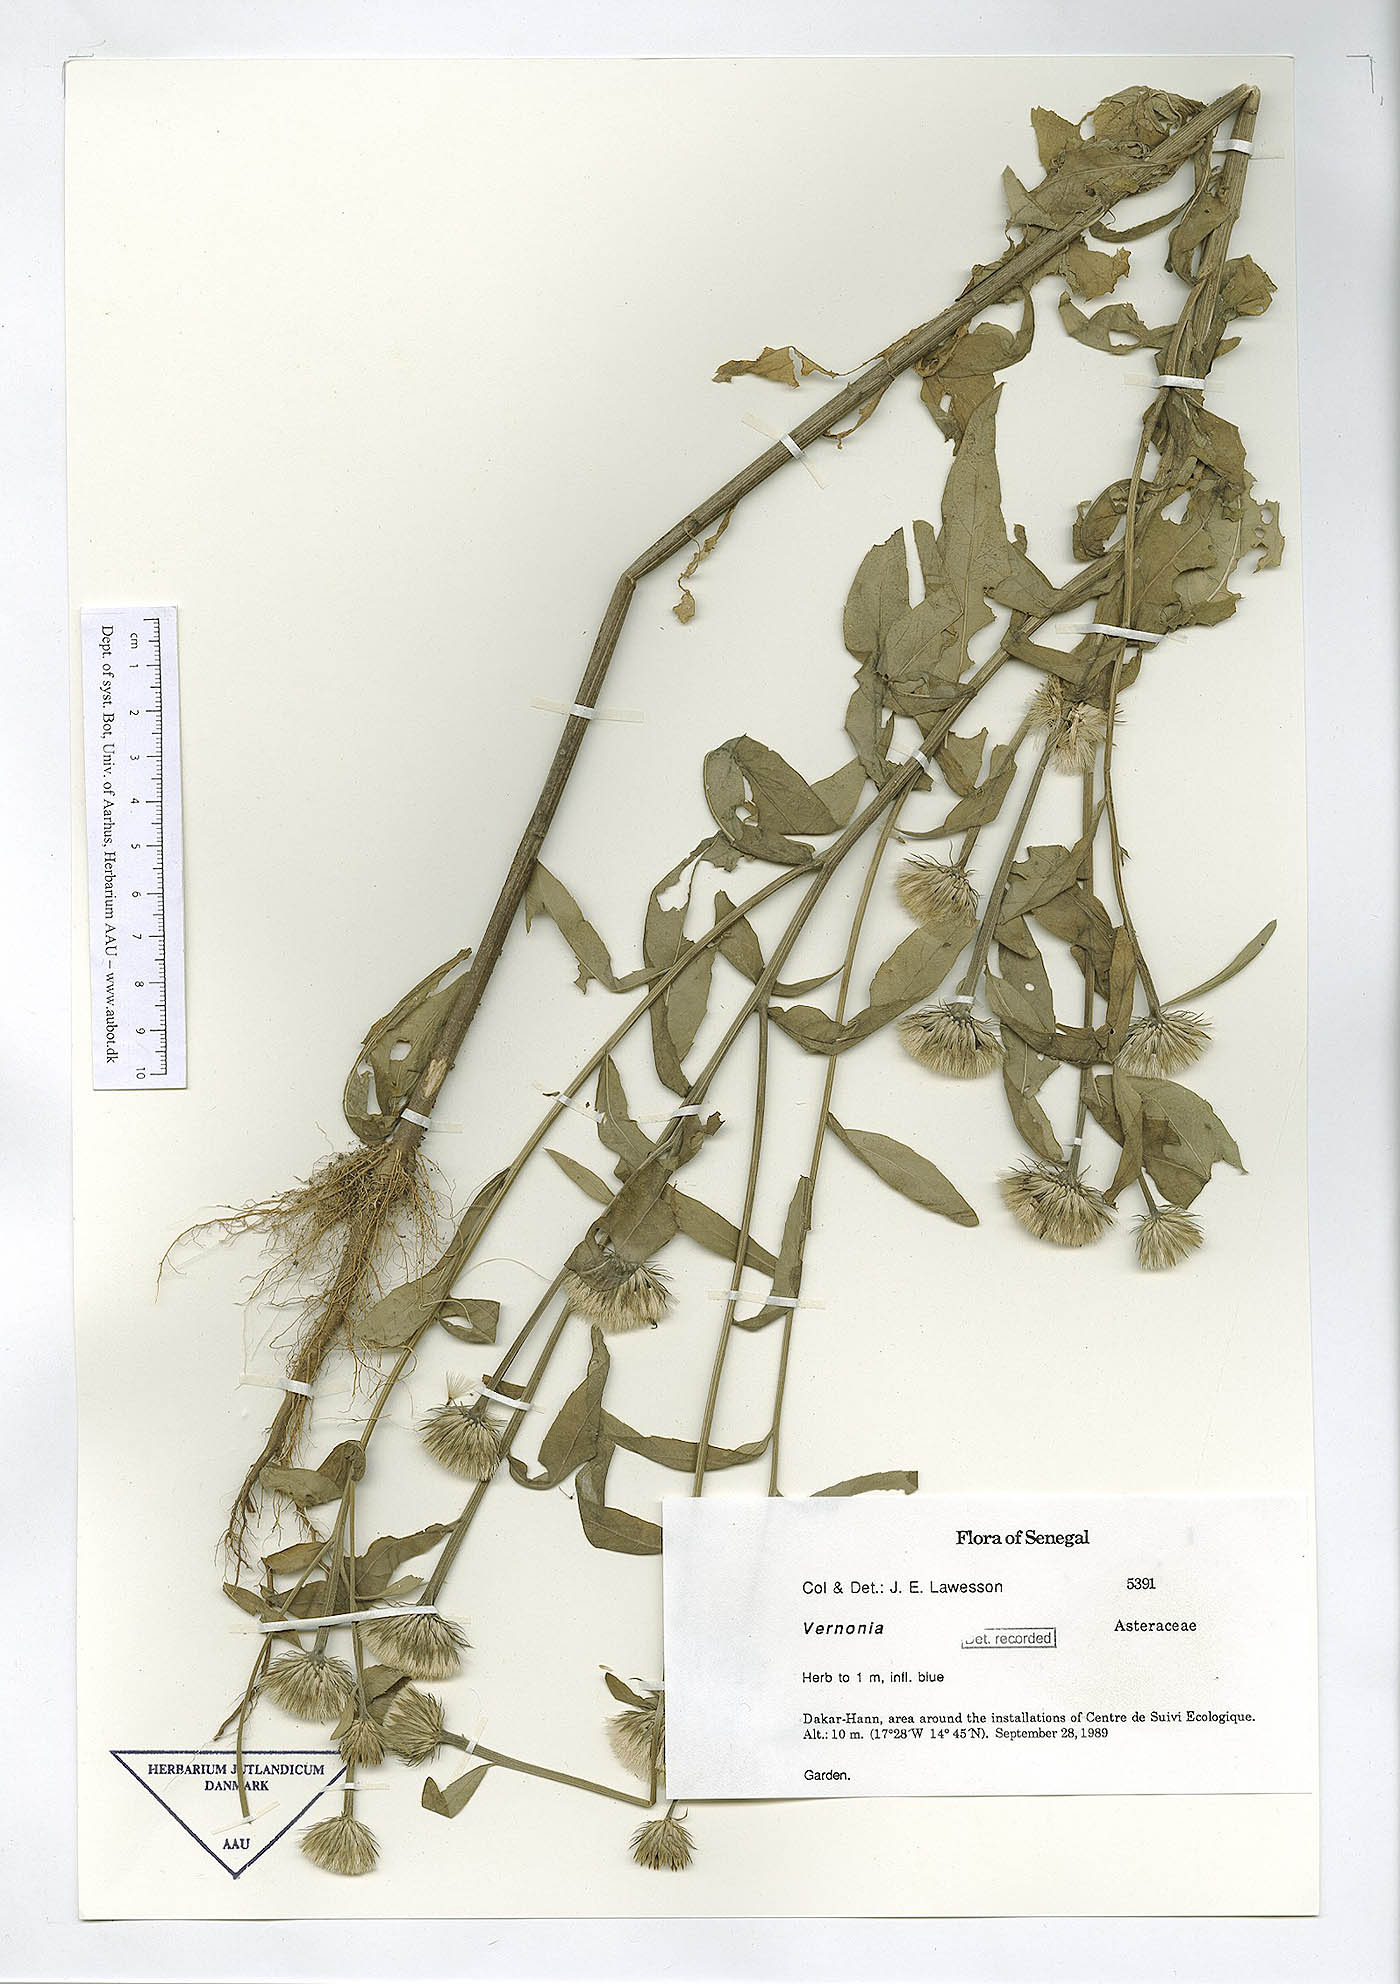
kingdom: Plantae
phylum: Tracheophyta
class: Magnoliopsida
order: Asterales
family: Asteraceae
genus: Vernonia
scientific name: Vernonia
